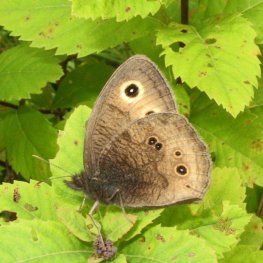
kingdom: Animalia
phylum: Arthropoda
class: Insecta
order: Lepidoptera
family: Nymphalidae
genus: Cercyonis
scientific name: Cercyonis pegala
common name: Common Wood-Nymph
